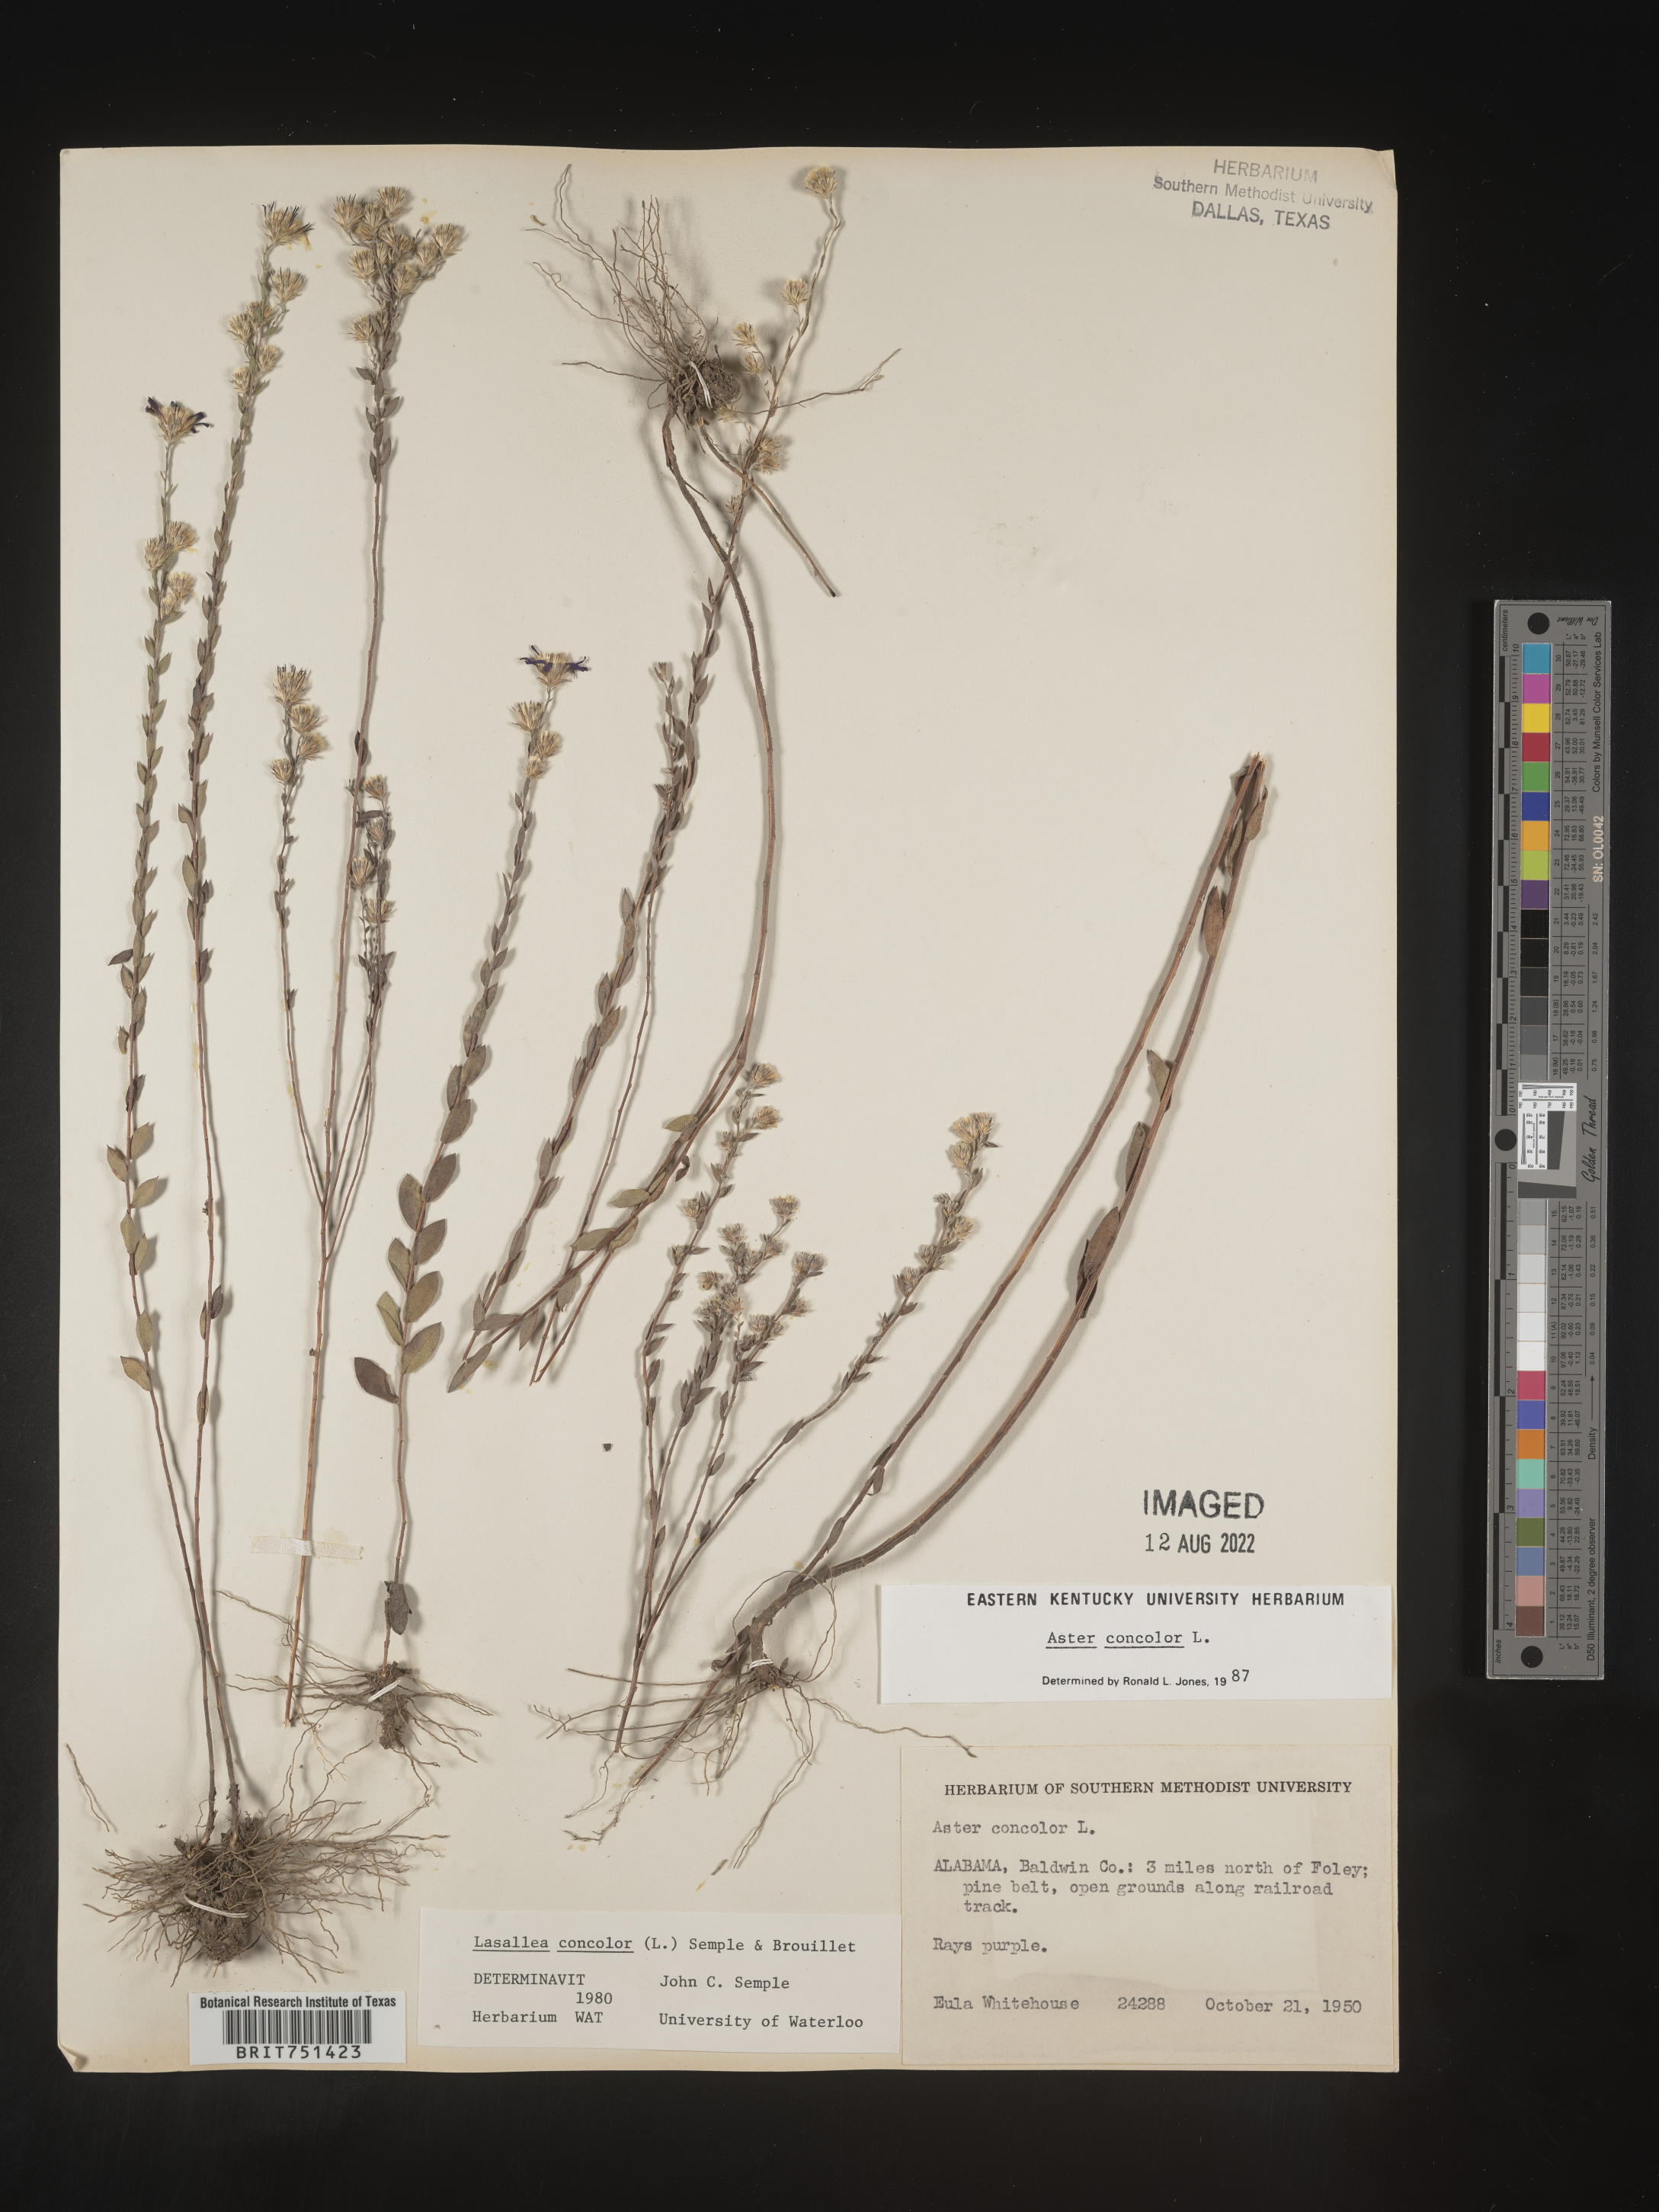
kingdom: Plantae
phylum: Tracheophyta
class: Magnoliopsida
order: Asterales
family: Asteraceae
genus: Symphyotrichum
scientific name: Symphyotrichum concolor
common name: Eastern silver aster
